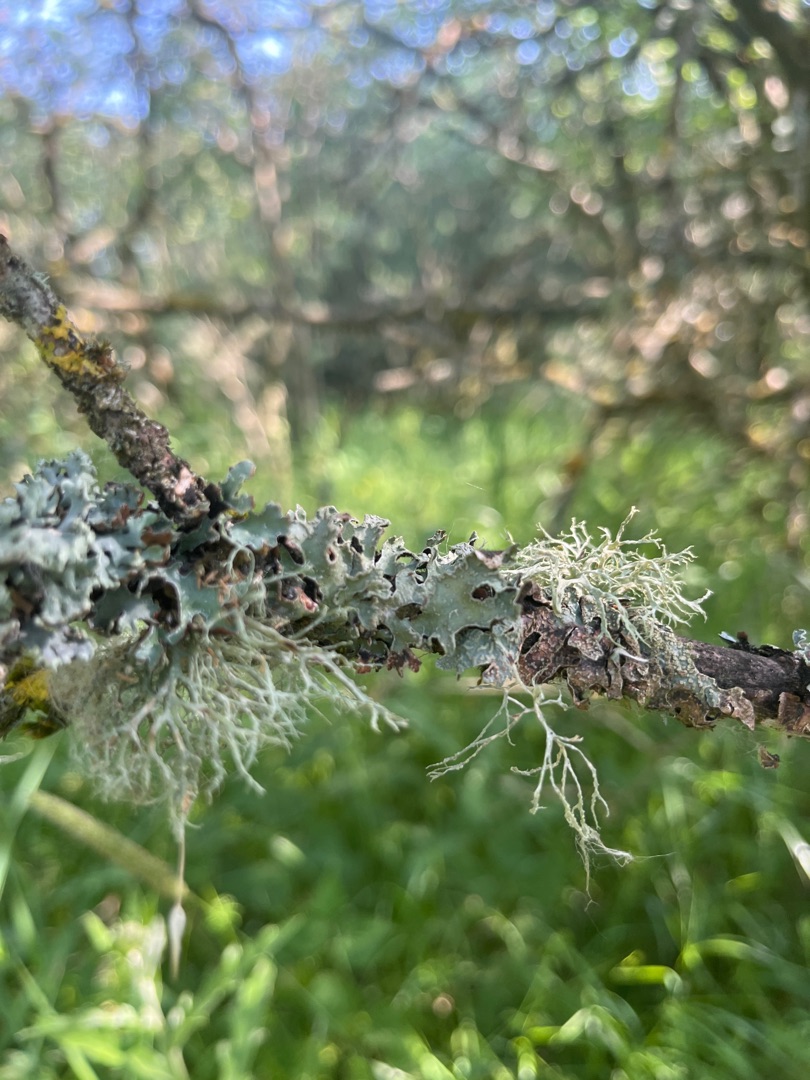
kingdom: Fungi
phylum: Ascomycota
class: Lecanoromycetes
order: Lecanorales
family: Parmeliaceae
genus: Parmelia
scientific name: Parmelia sulcata
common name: Rynket skållav
